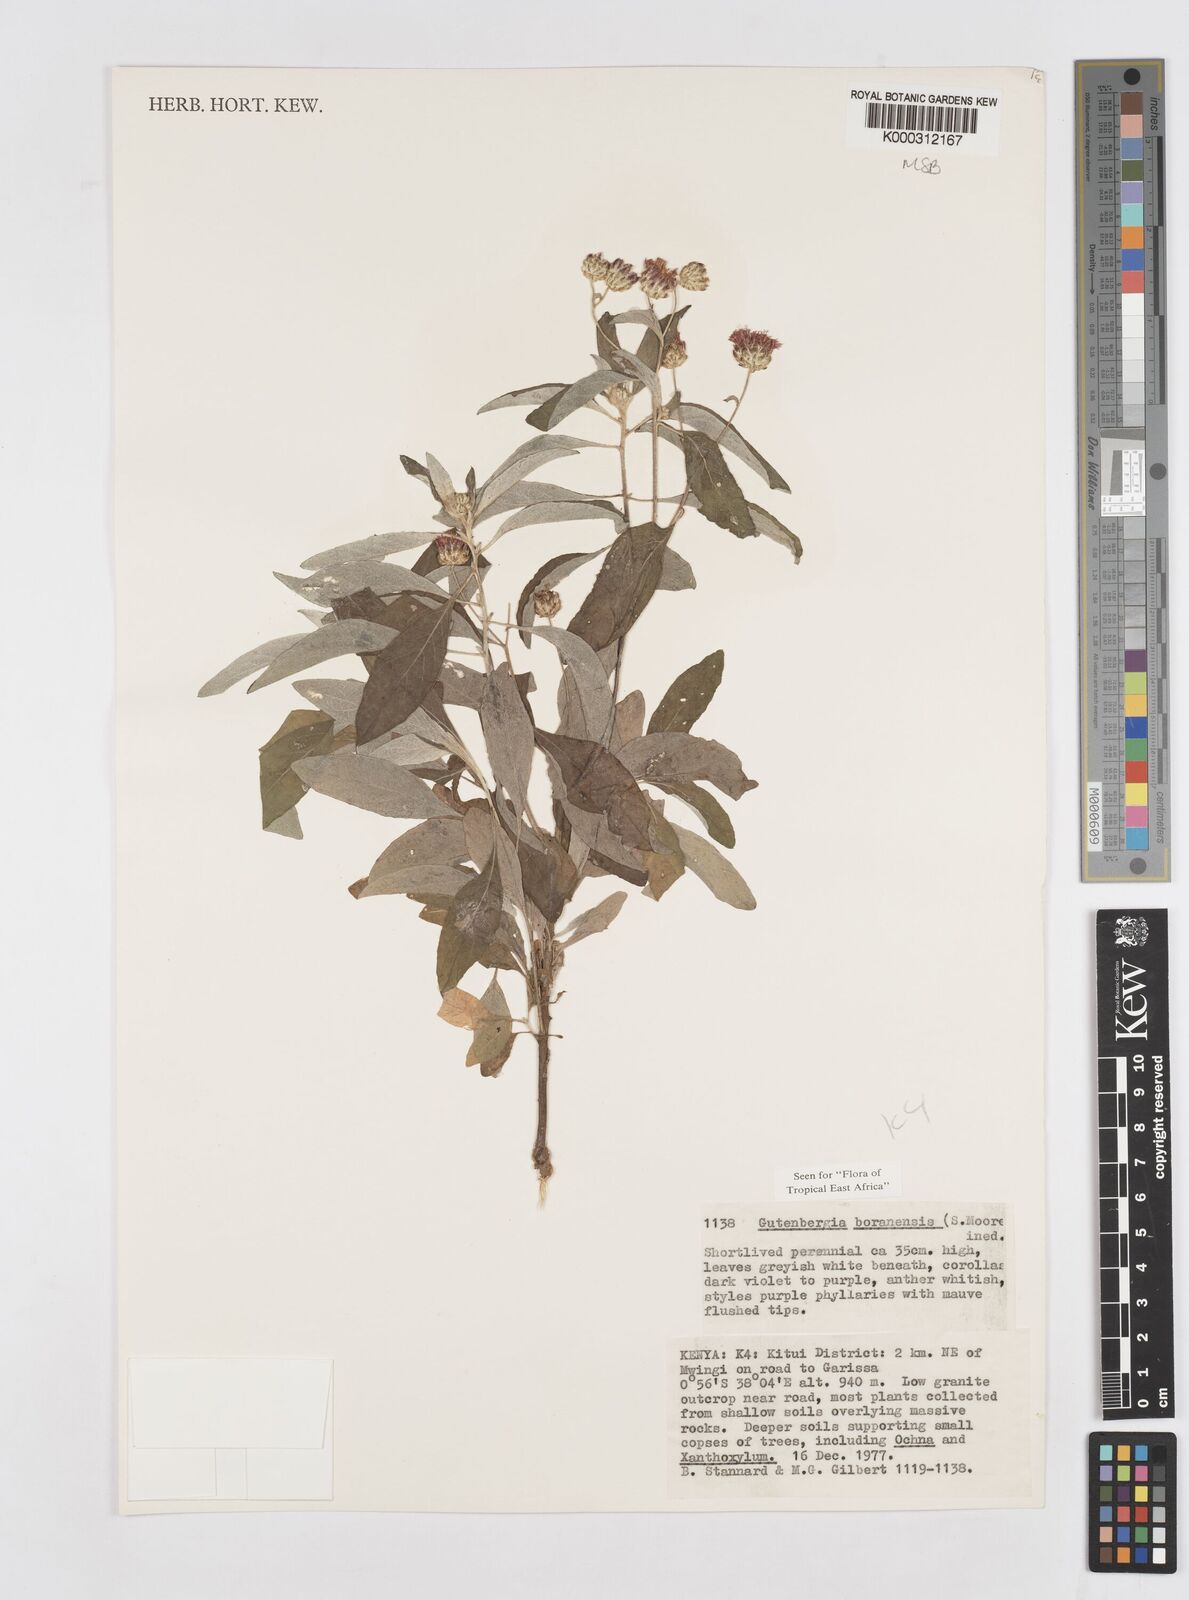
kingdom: Plantae
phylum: Tracheophyta
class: Magnoliopsida
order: Asterales
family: Asteraceae
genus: Gutenbergia
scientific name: Gutenbergia boranensis
